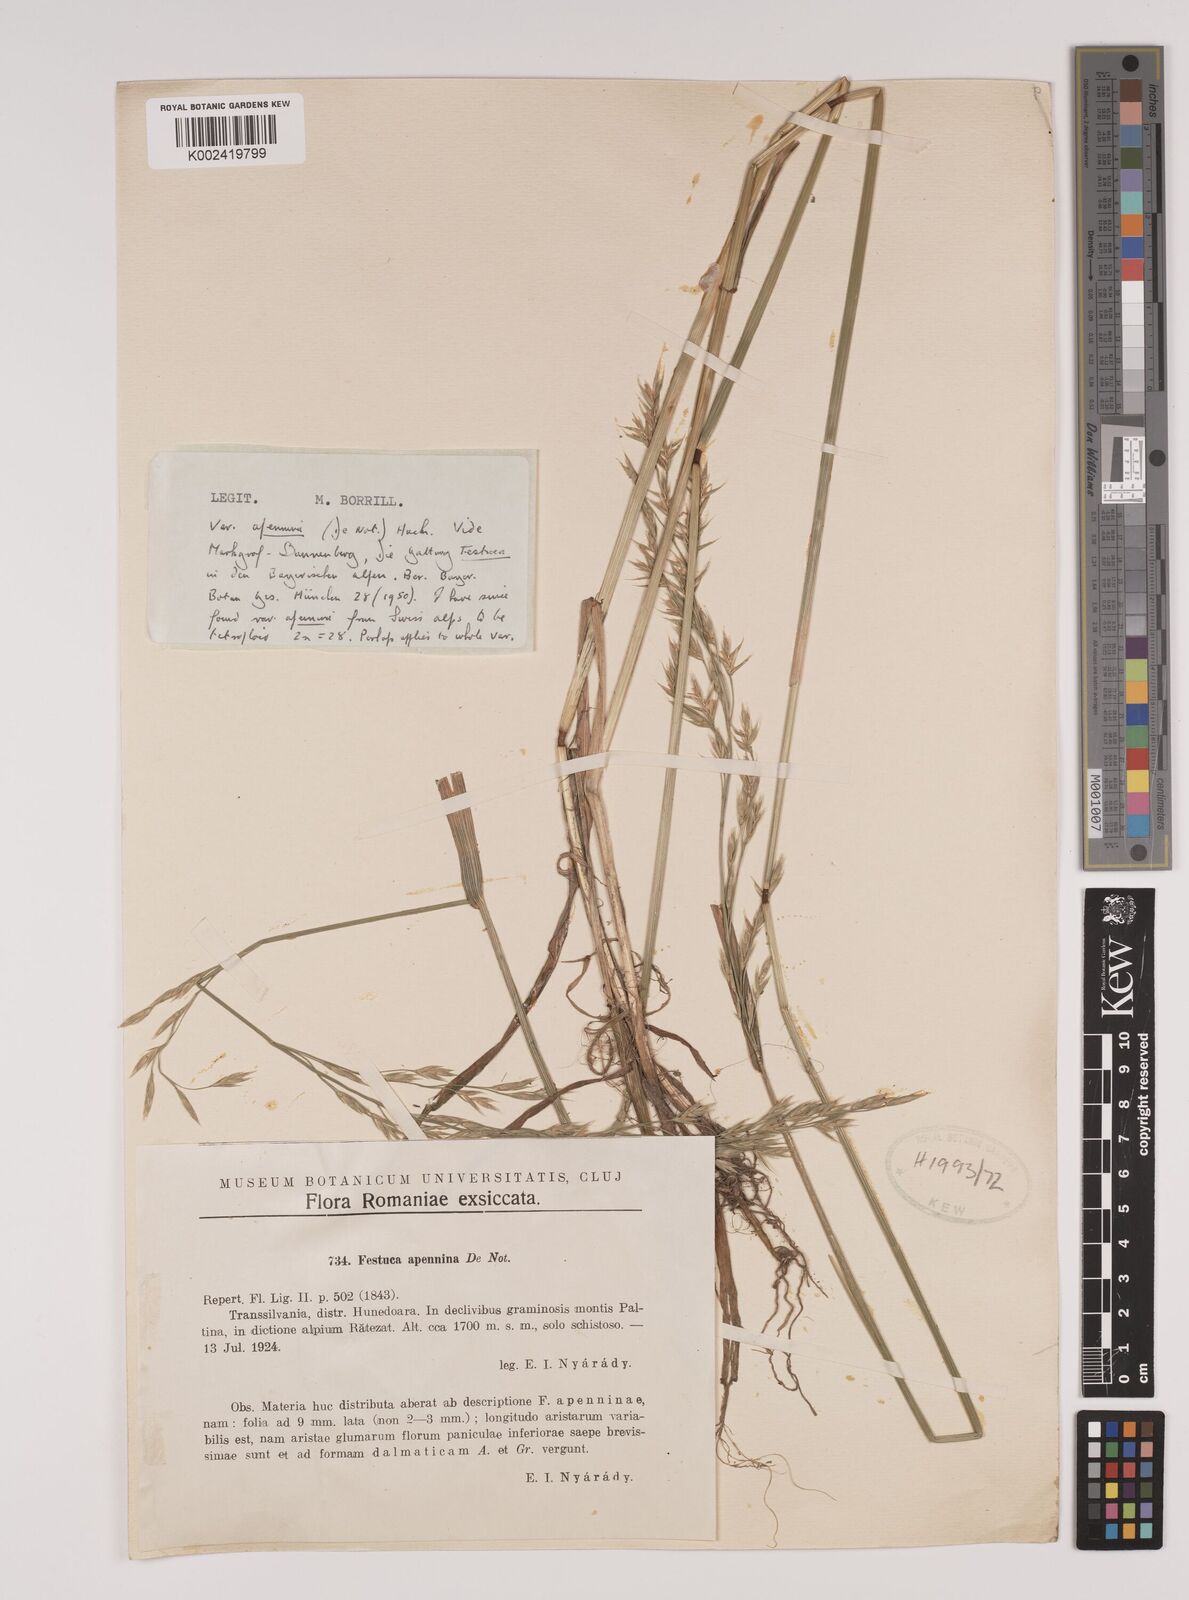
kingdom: Plantae
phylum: Tracheophyta
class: Liliopsida
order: Poales
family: Poaceae
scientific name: Poaceae
